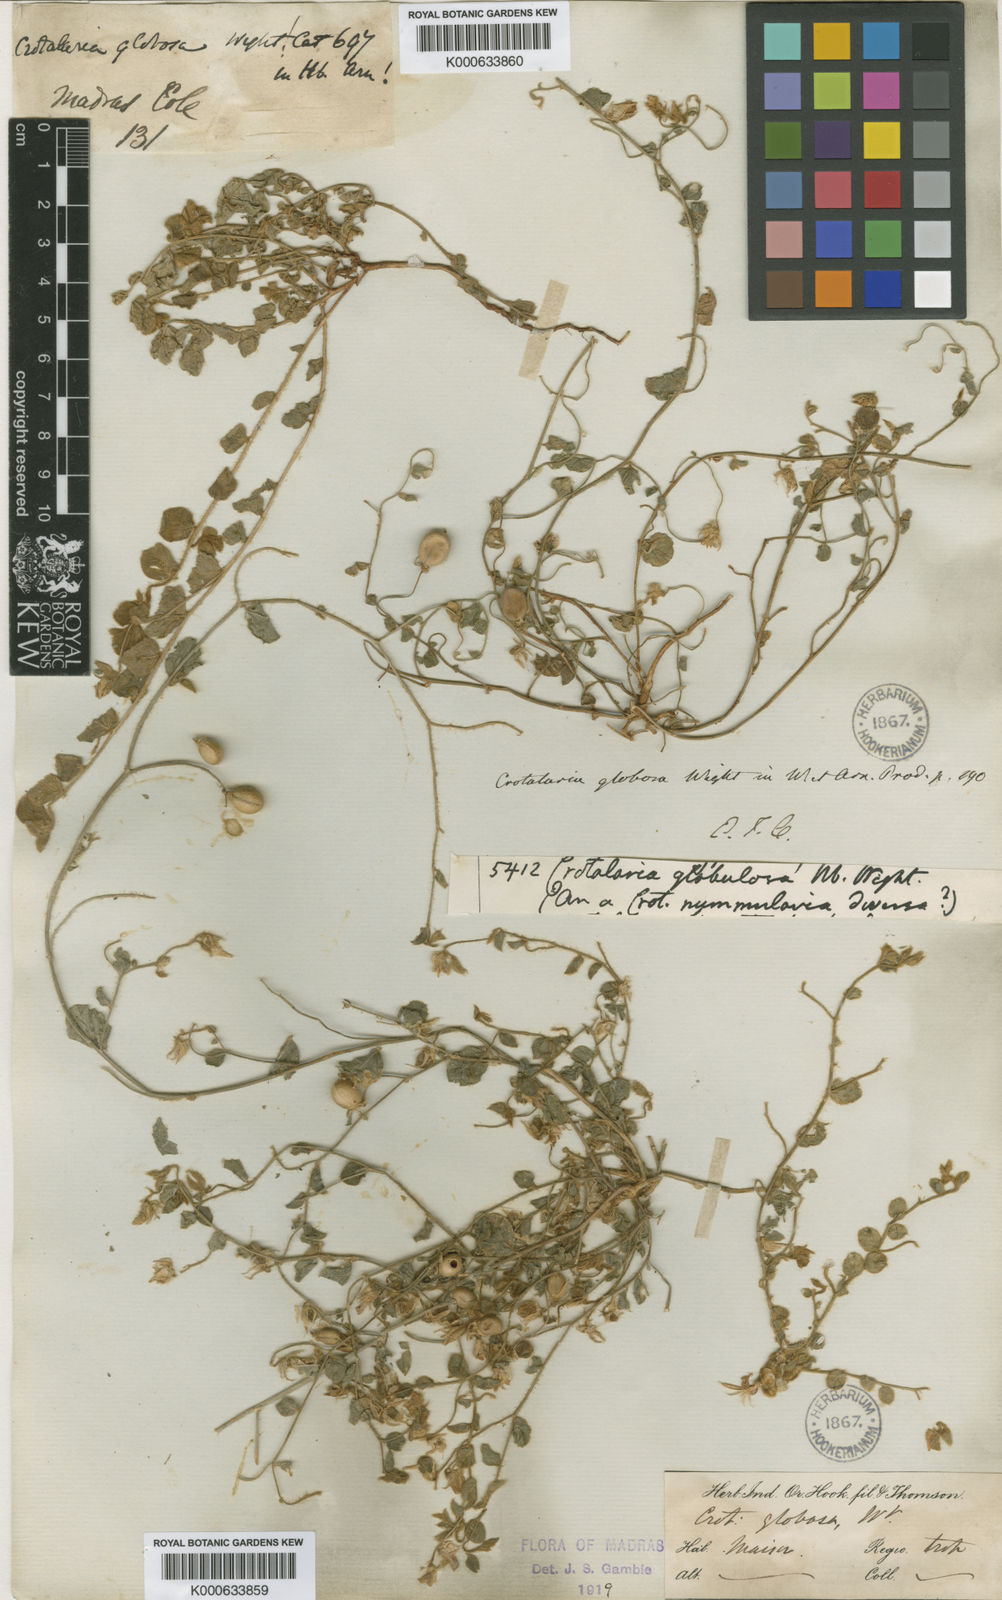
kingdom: Plantae
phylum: Tracheophyta
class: Magnoliopsida
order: Fabales
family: Fabaceae
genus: Crotalaria
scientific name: Crotalaria globosa
